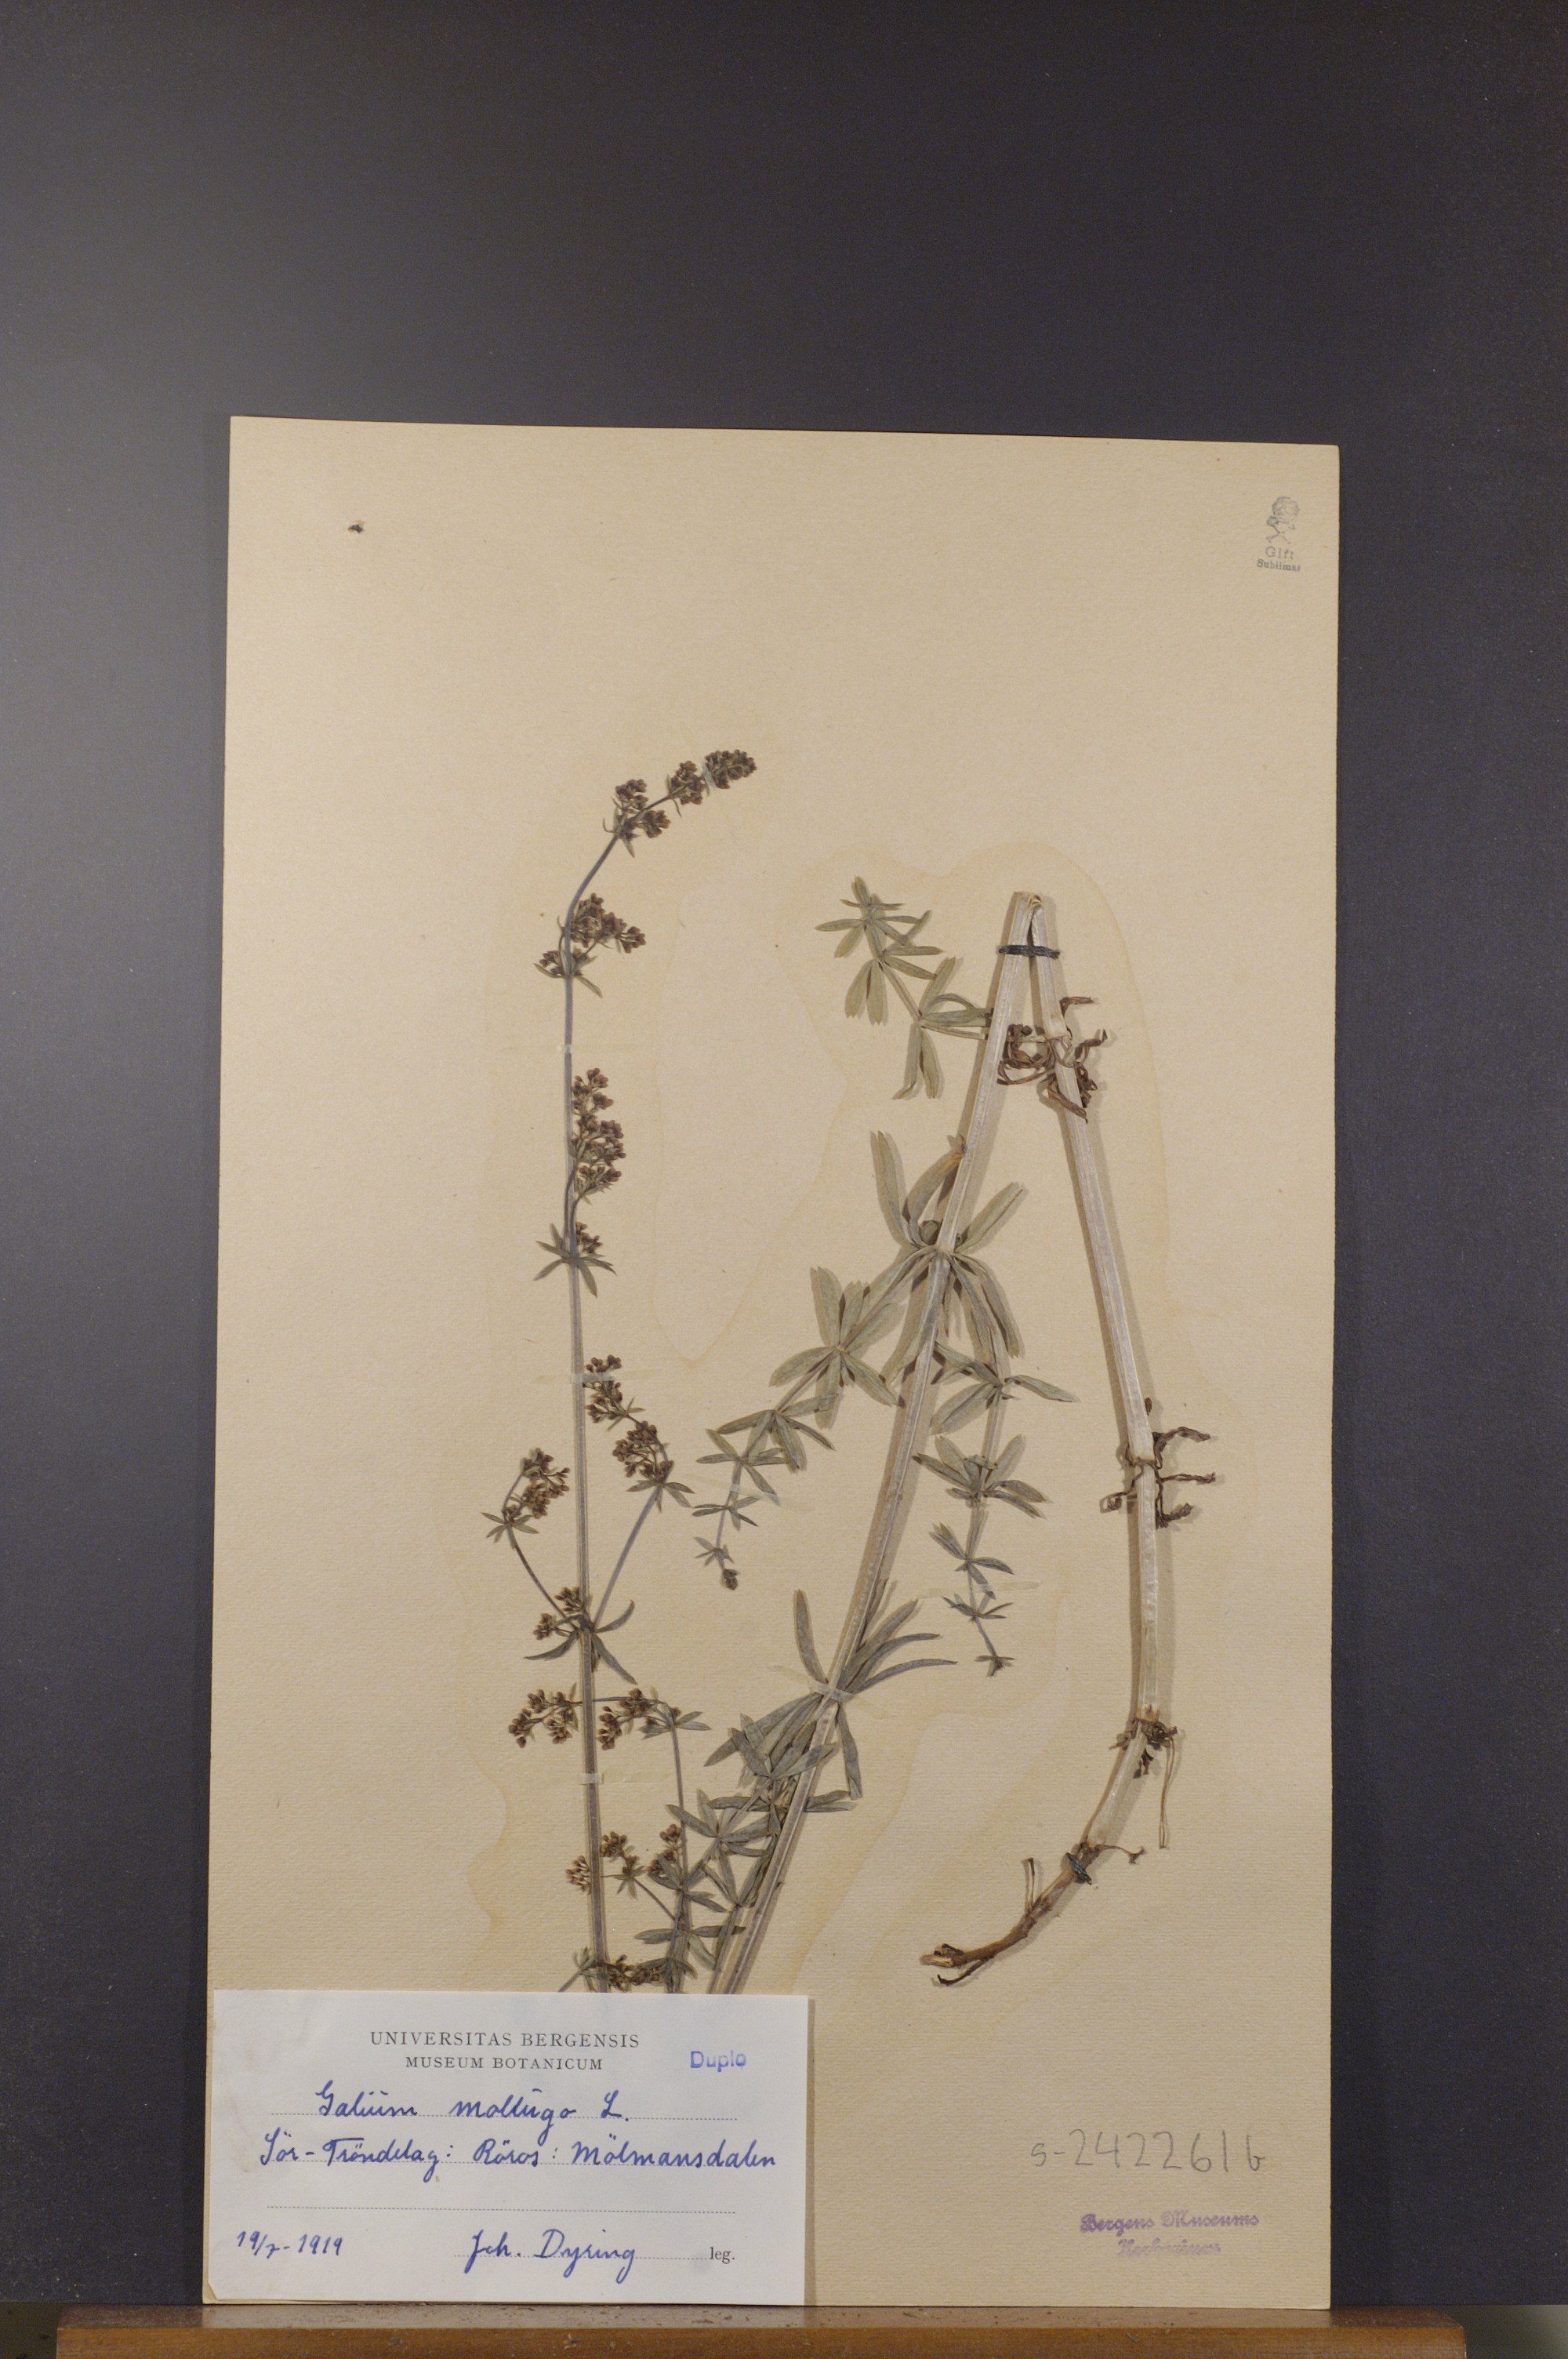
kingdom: Plantae
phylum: Tracheophyta
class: Magnoliopsida
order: Gentianales
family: Rubiaceae
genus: Galium
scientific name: Galium mollugo
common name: Hedge bedstraw
